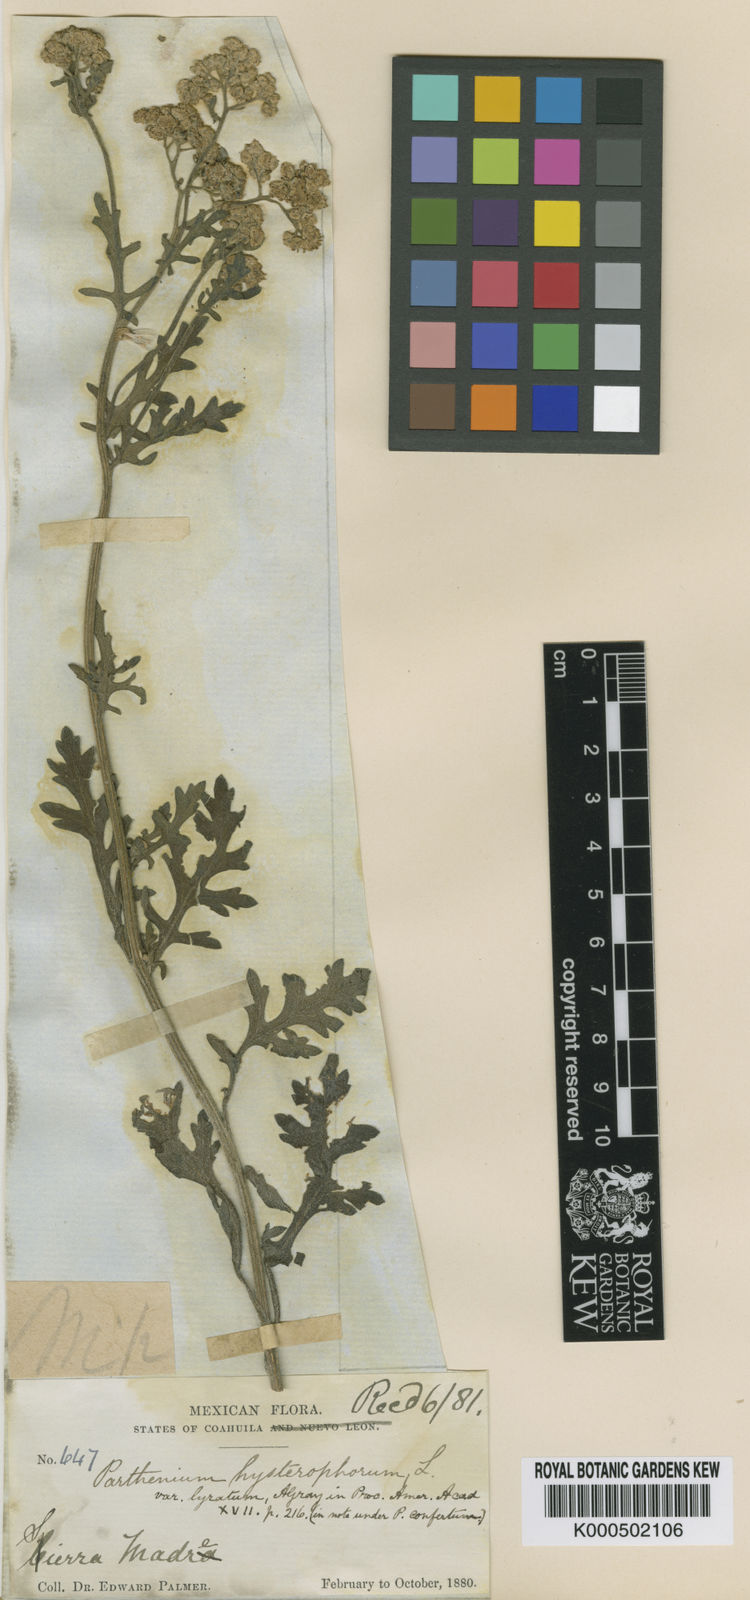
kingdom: Plantae
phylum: Tracheophyta
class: Magnoliopsida
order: Asterales
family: Asteraceae
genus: Parthenium
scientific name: Parthenium confertum
